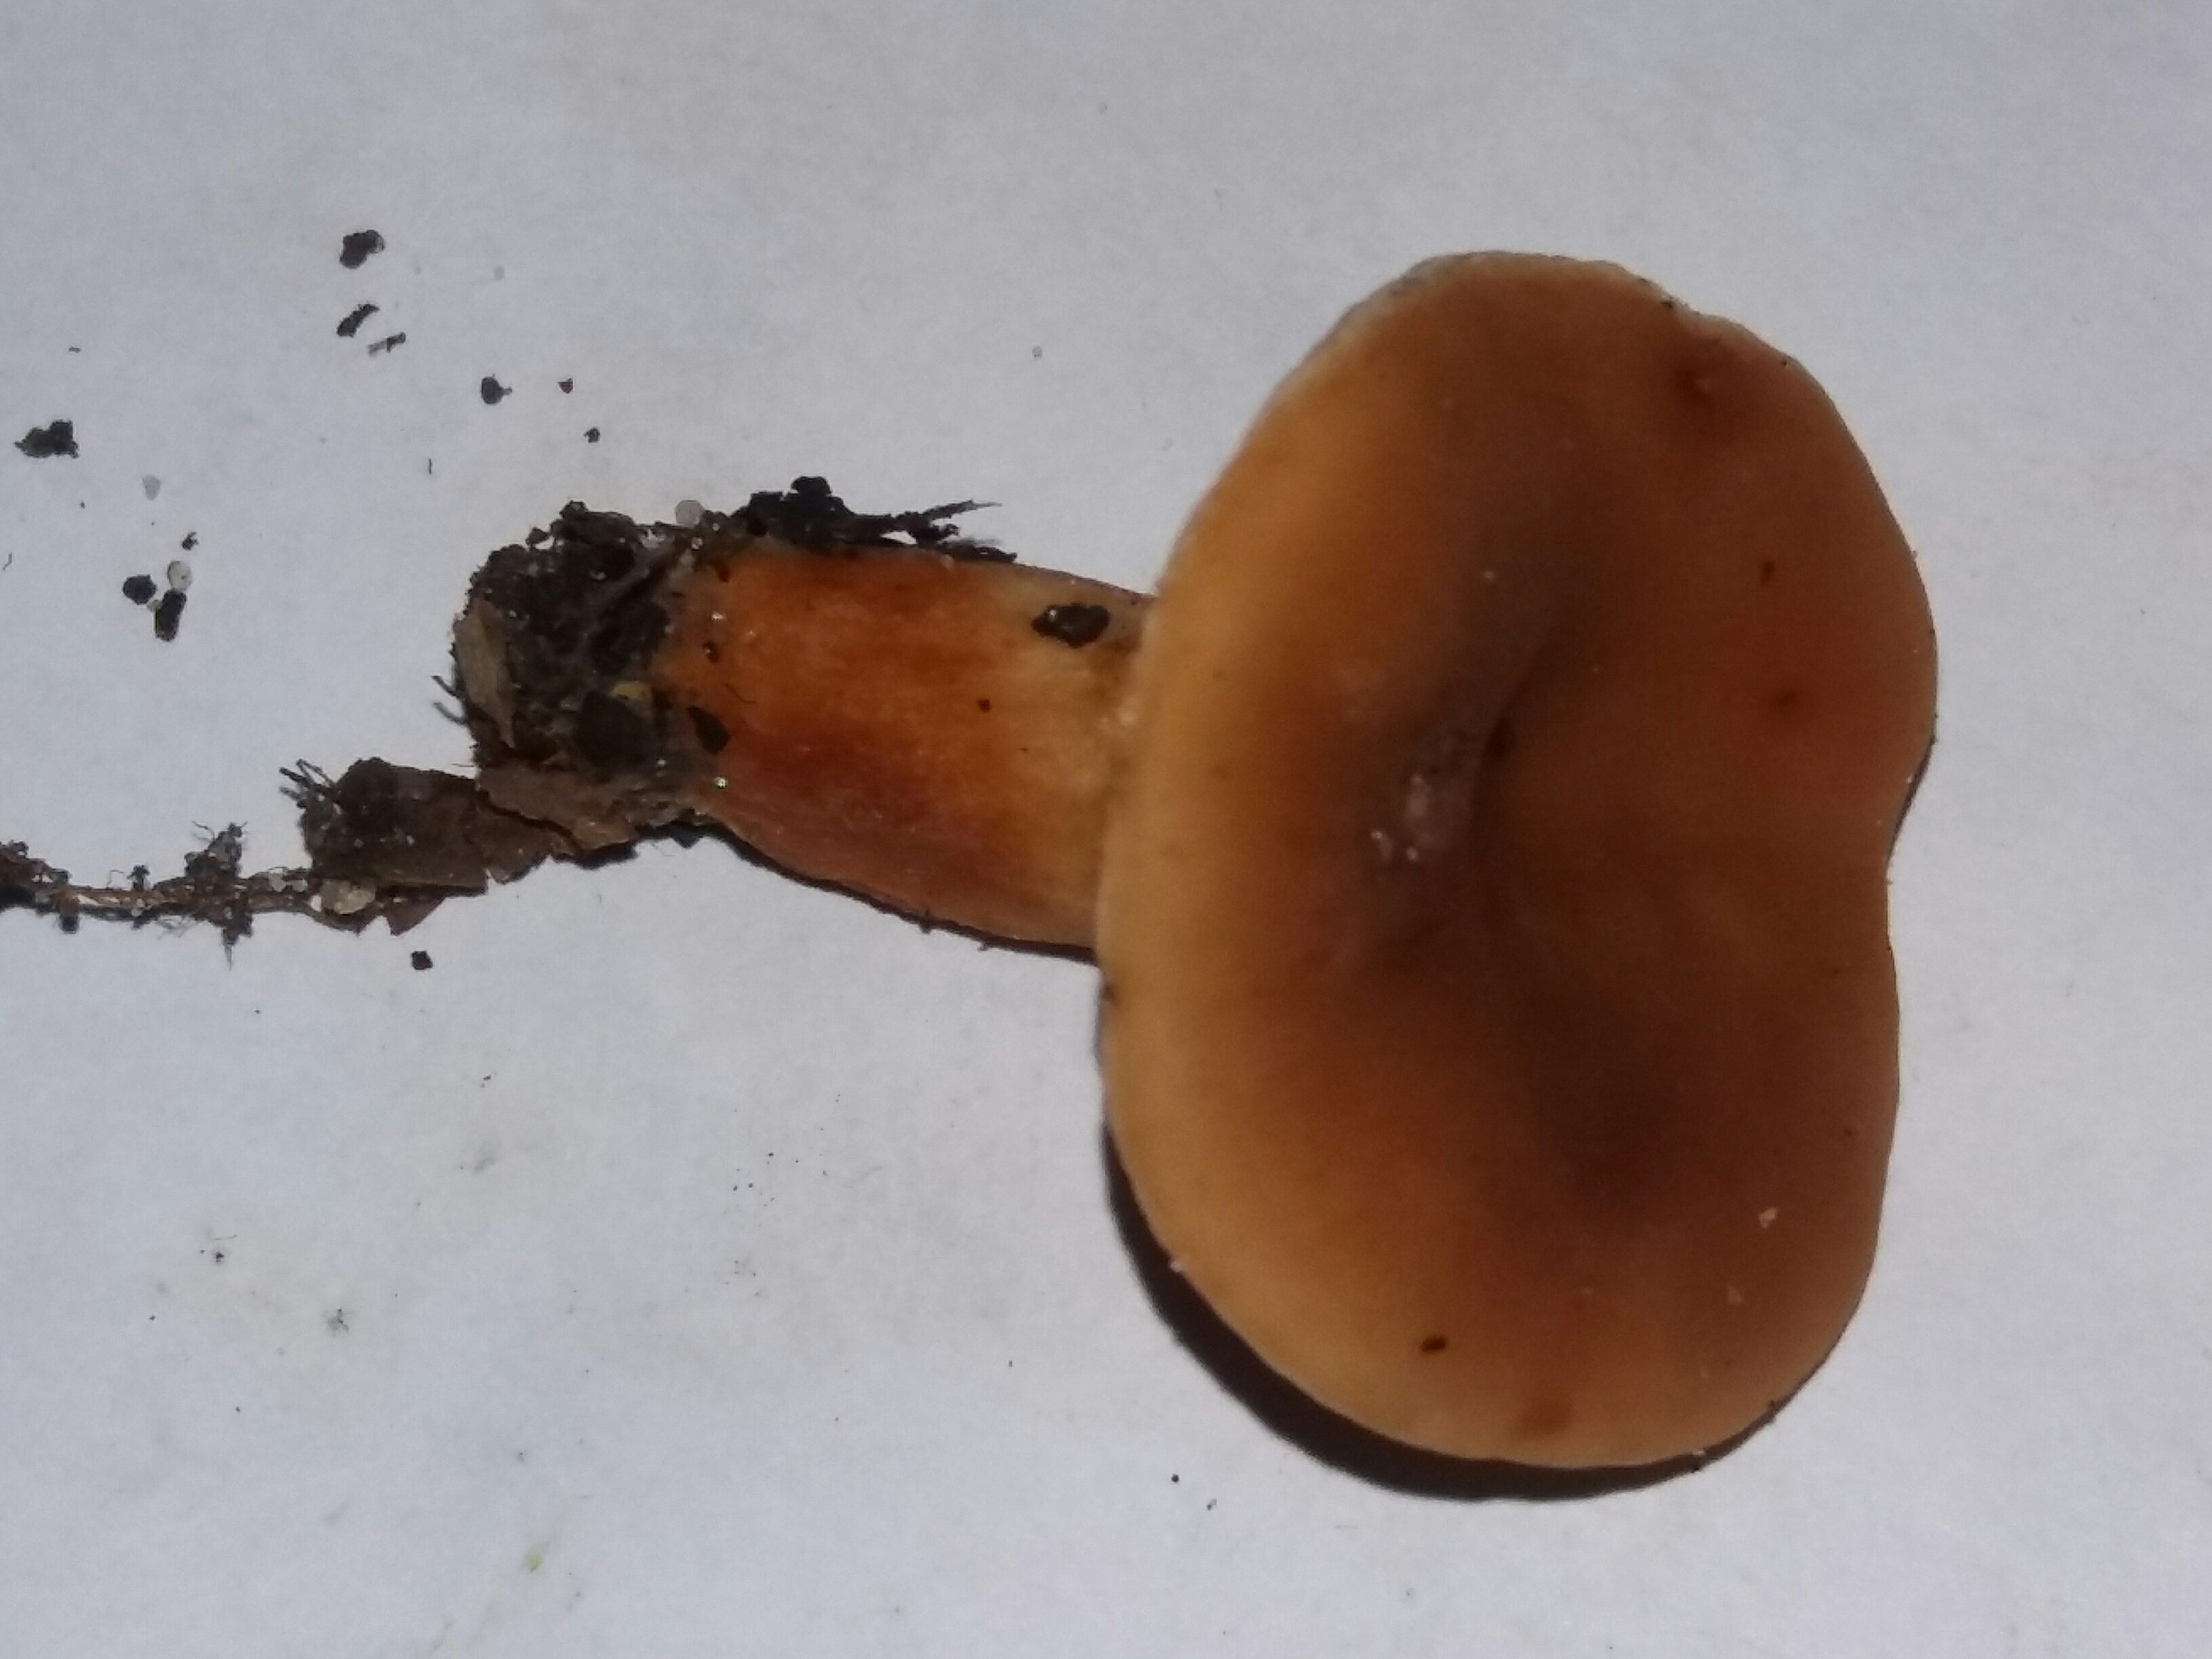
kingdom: Fungi
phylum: Basidiomycota
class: Agaricomycetes
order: Russulales
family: Russulaceae
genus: Lactarius
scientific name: Lactarius subdulcis
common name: sødlig mælkehat
